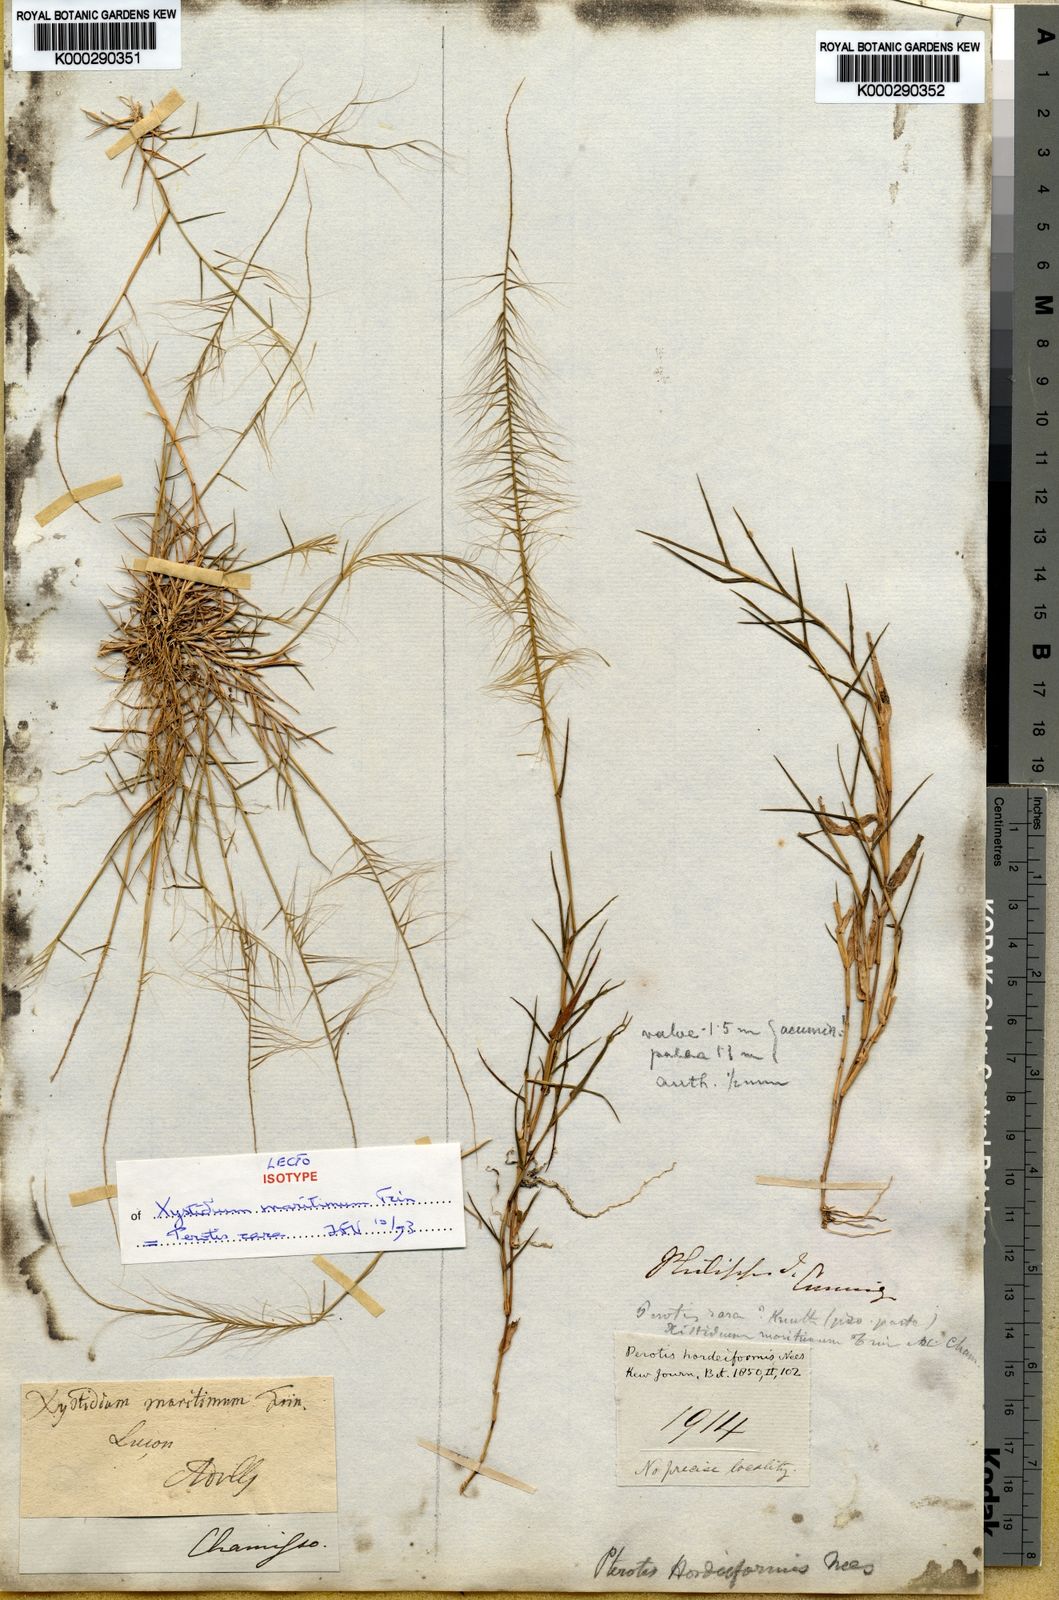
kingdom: Plantae
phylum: Tracheophyta
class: Liliopsida
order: Poales
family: Poaceae
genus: Perotis
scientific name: Perotis hordeiformis
